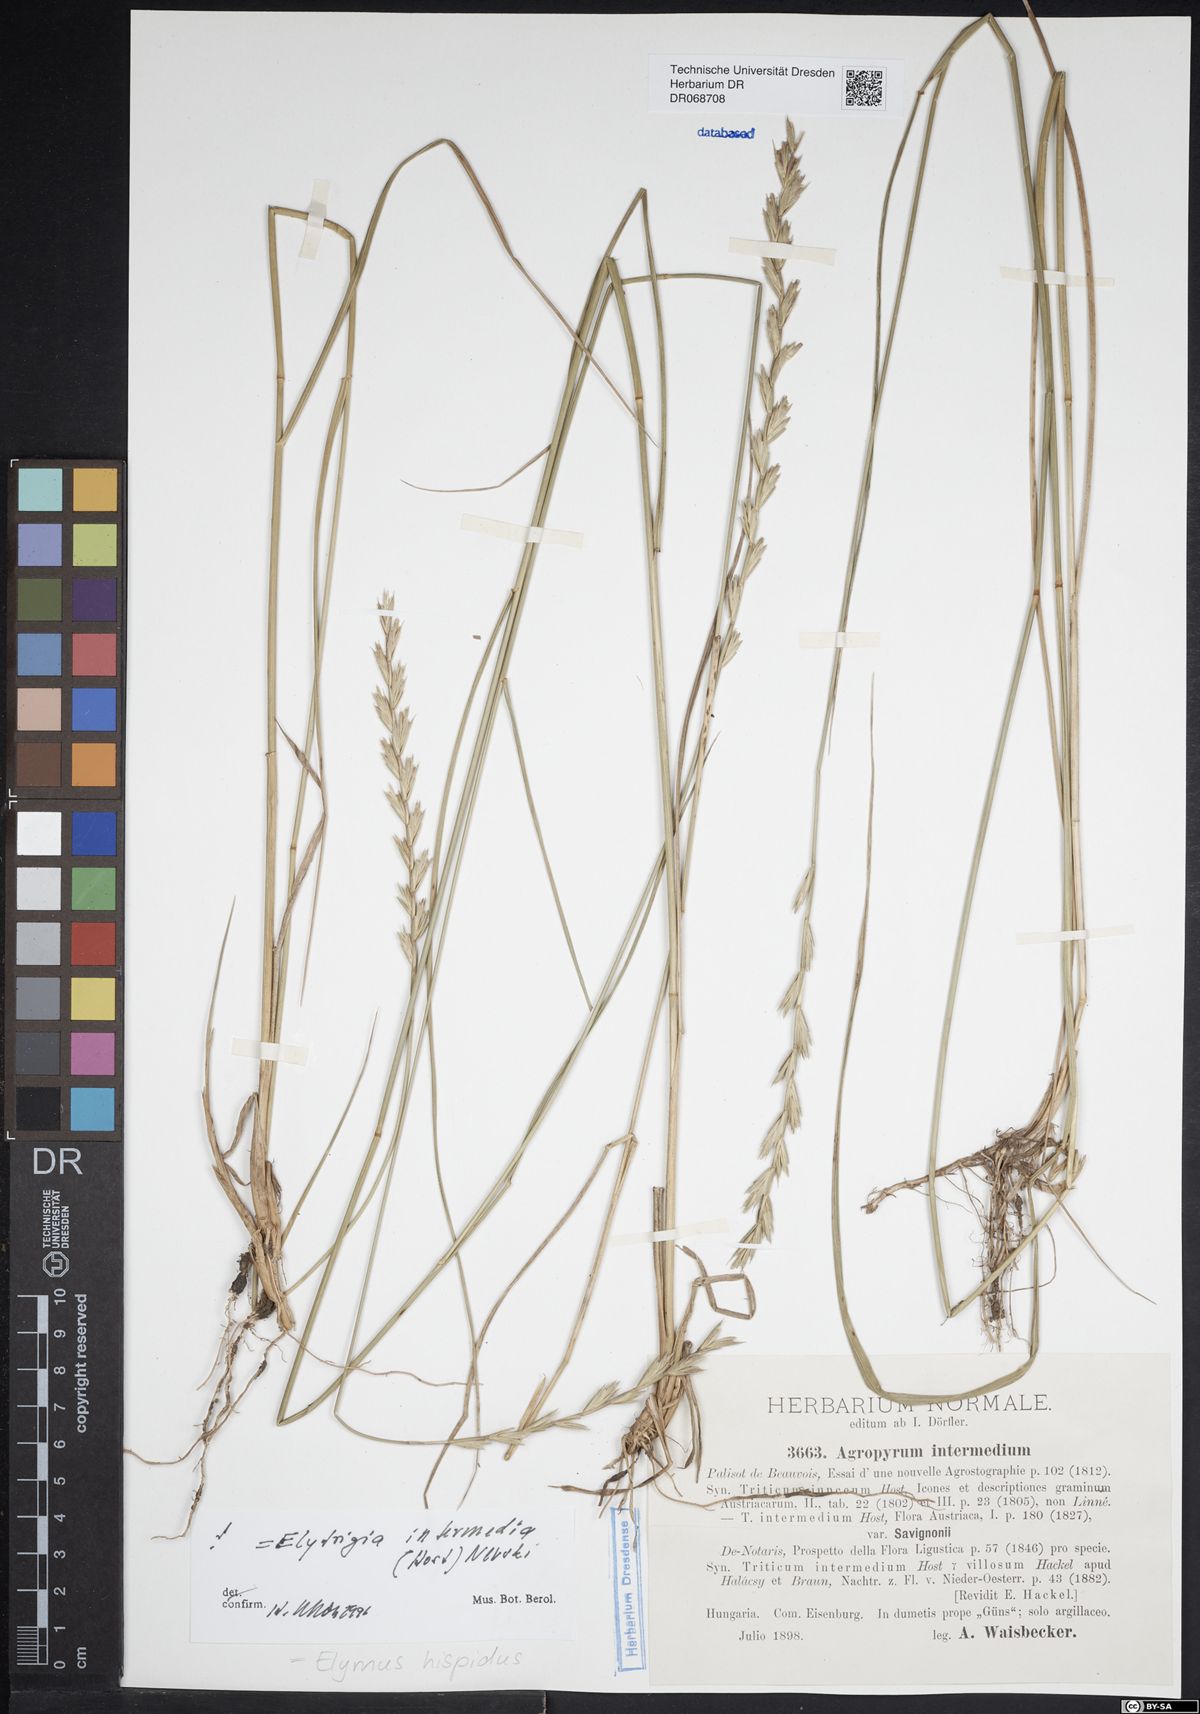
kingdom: Plantae
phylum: Tracheophyta
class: Liliopsida
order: Poales
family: Poaceae
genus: Thinopyrum
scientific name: Thinopyrum intermedium
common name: Intermediate wheatgrass
